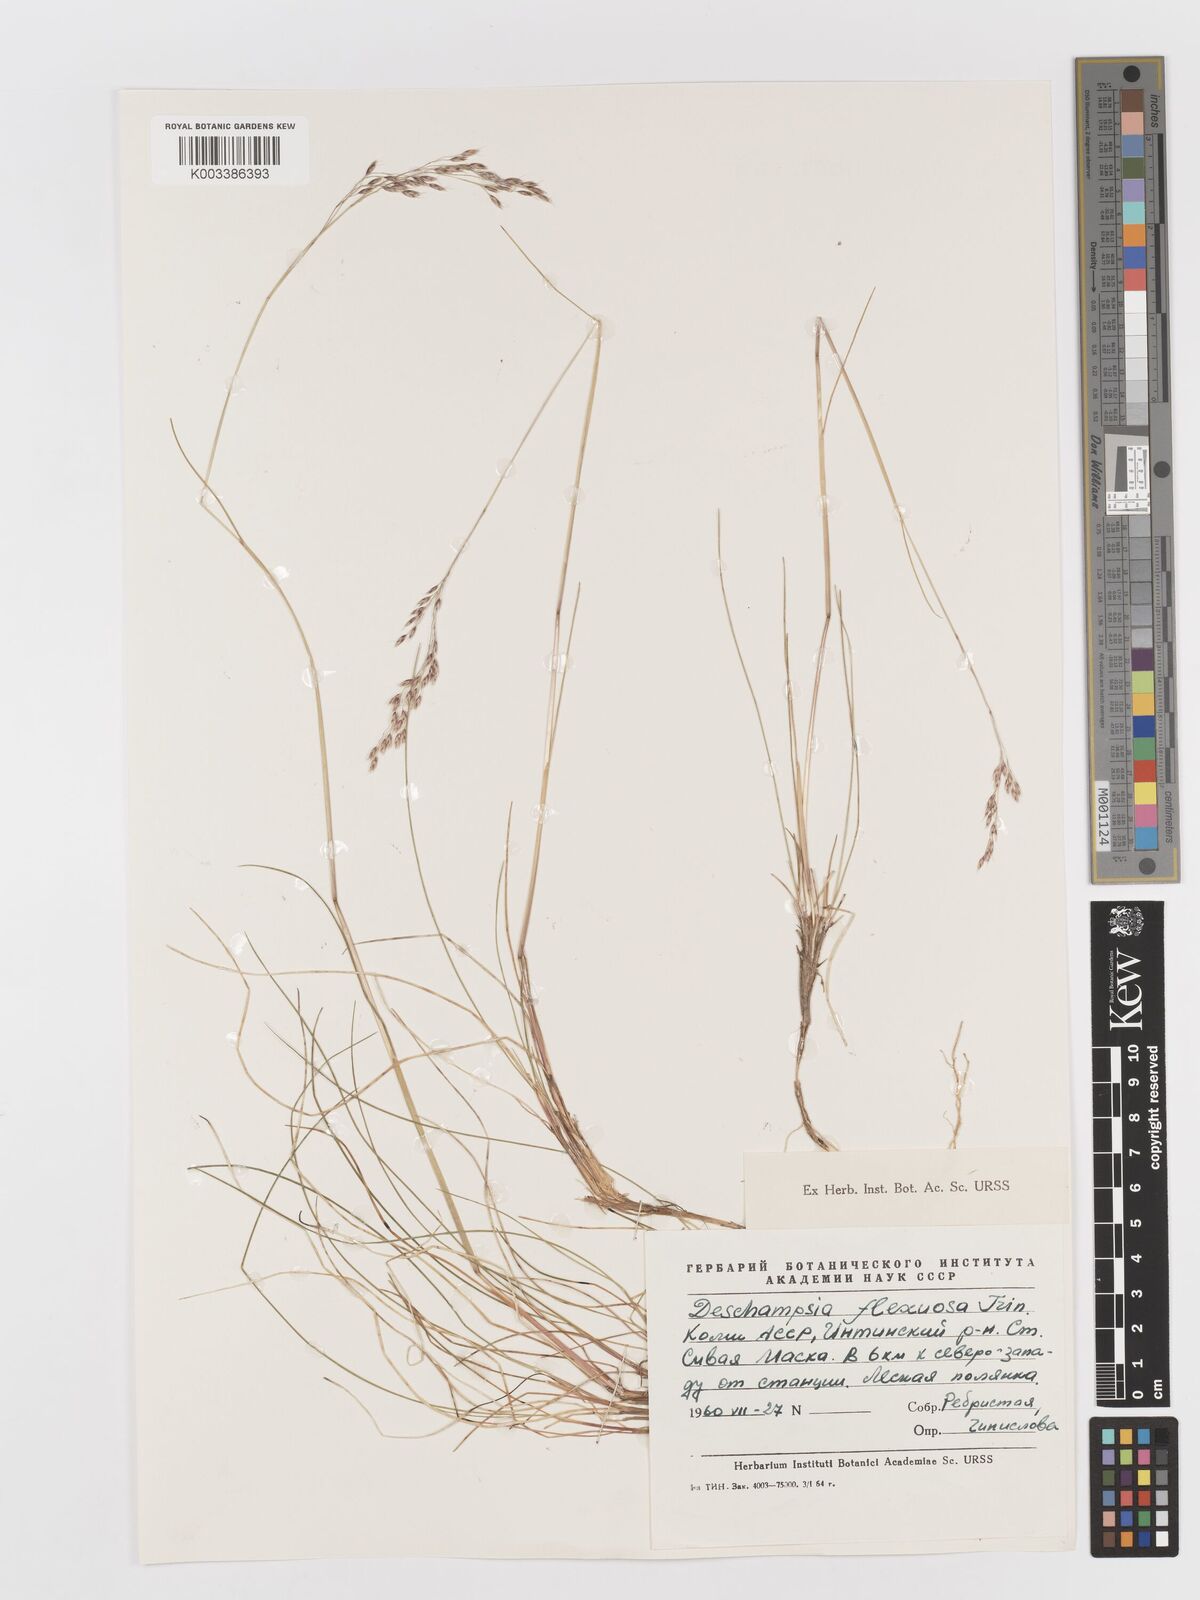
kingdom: Plantae
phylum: Tracheophyta
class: Liliopsida
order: Poales
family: Poaceae
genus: Avenella
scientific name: Avenella flexuosa
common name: Wavy hairgrass
